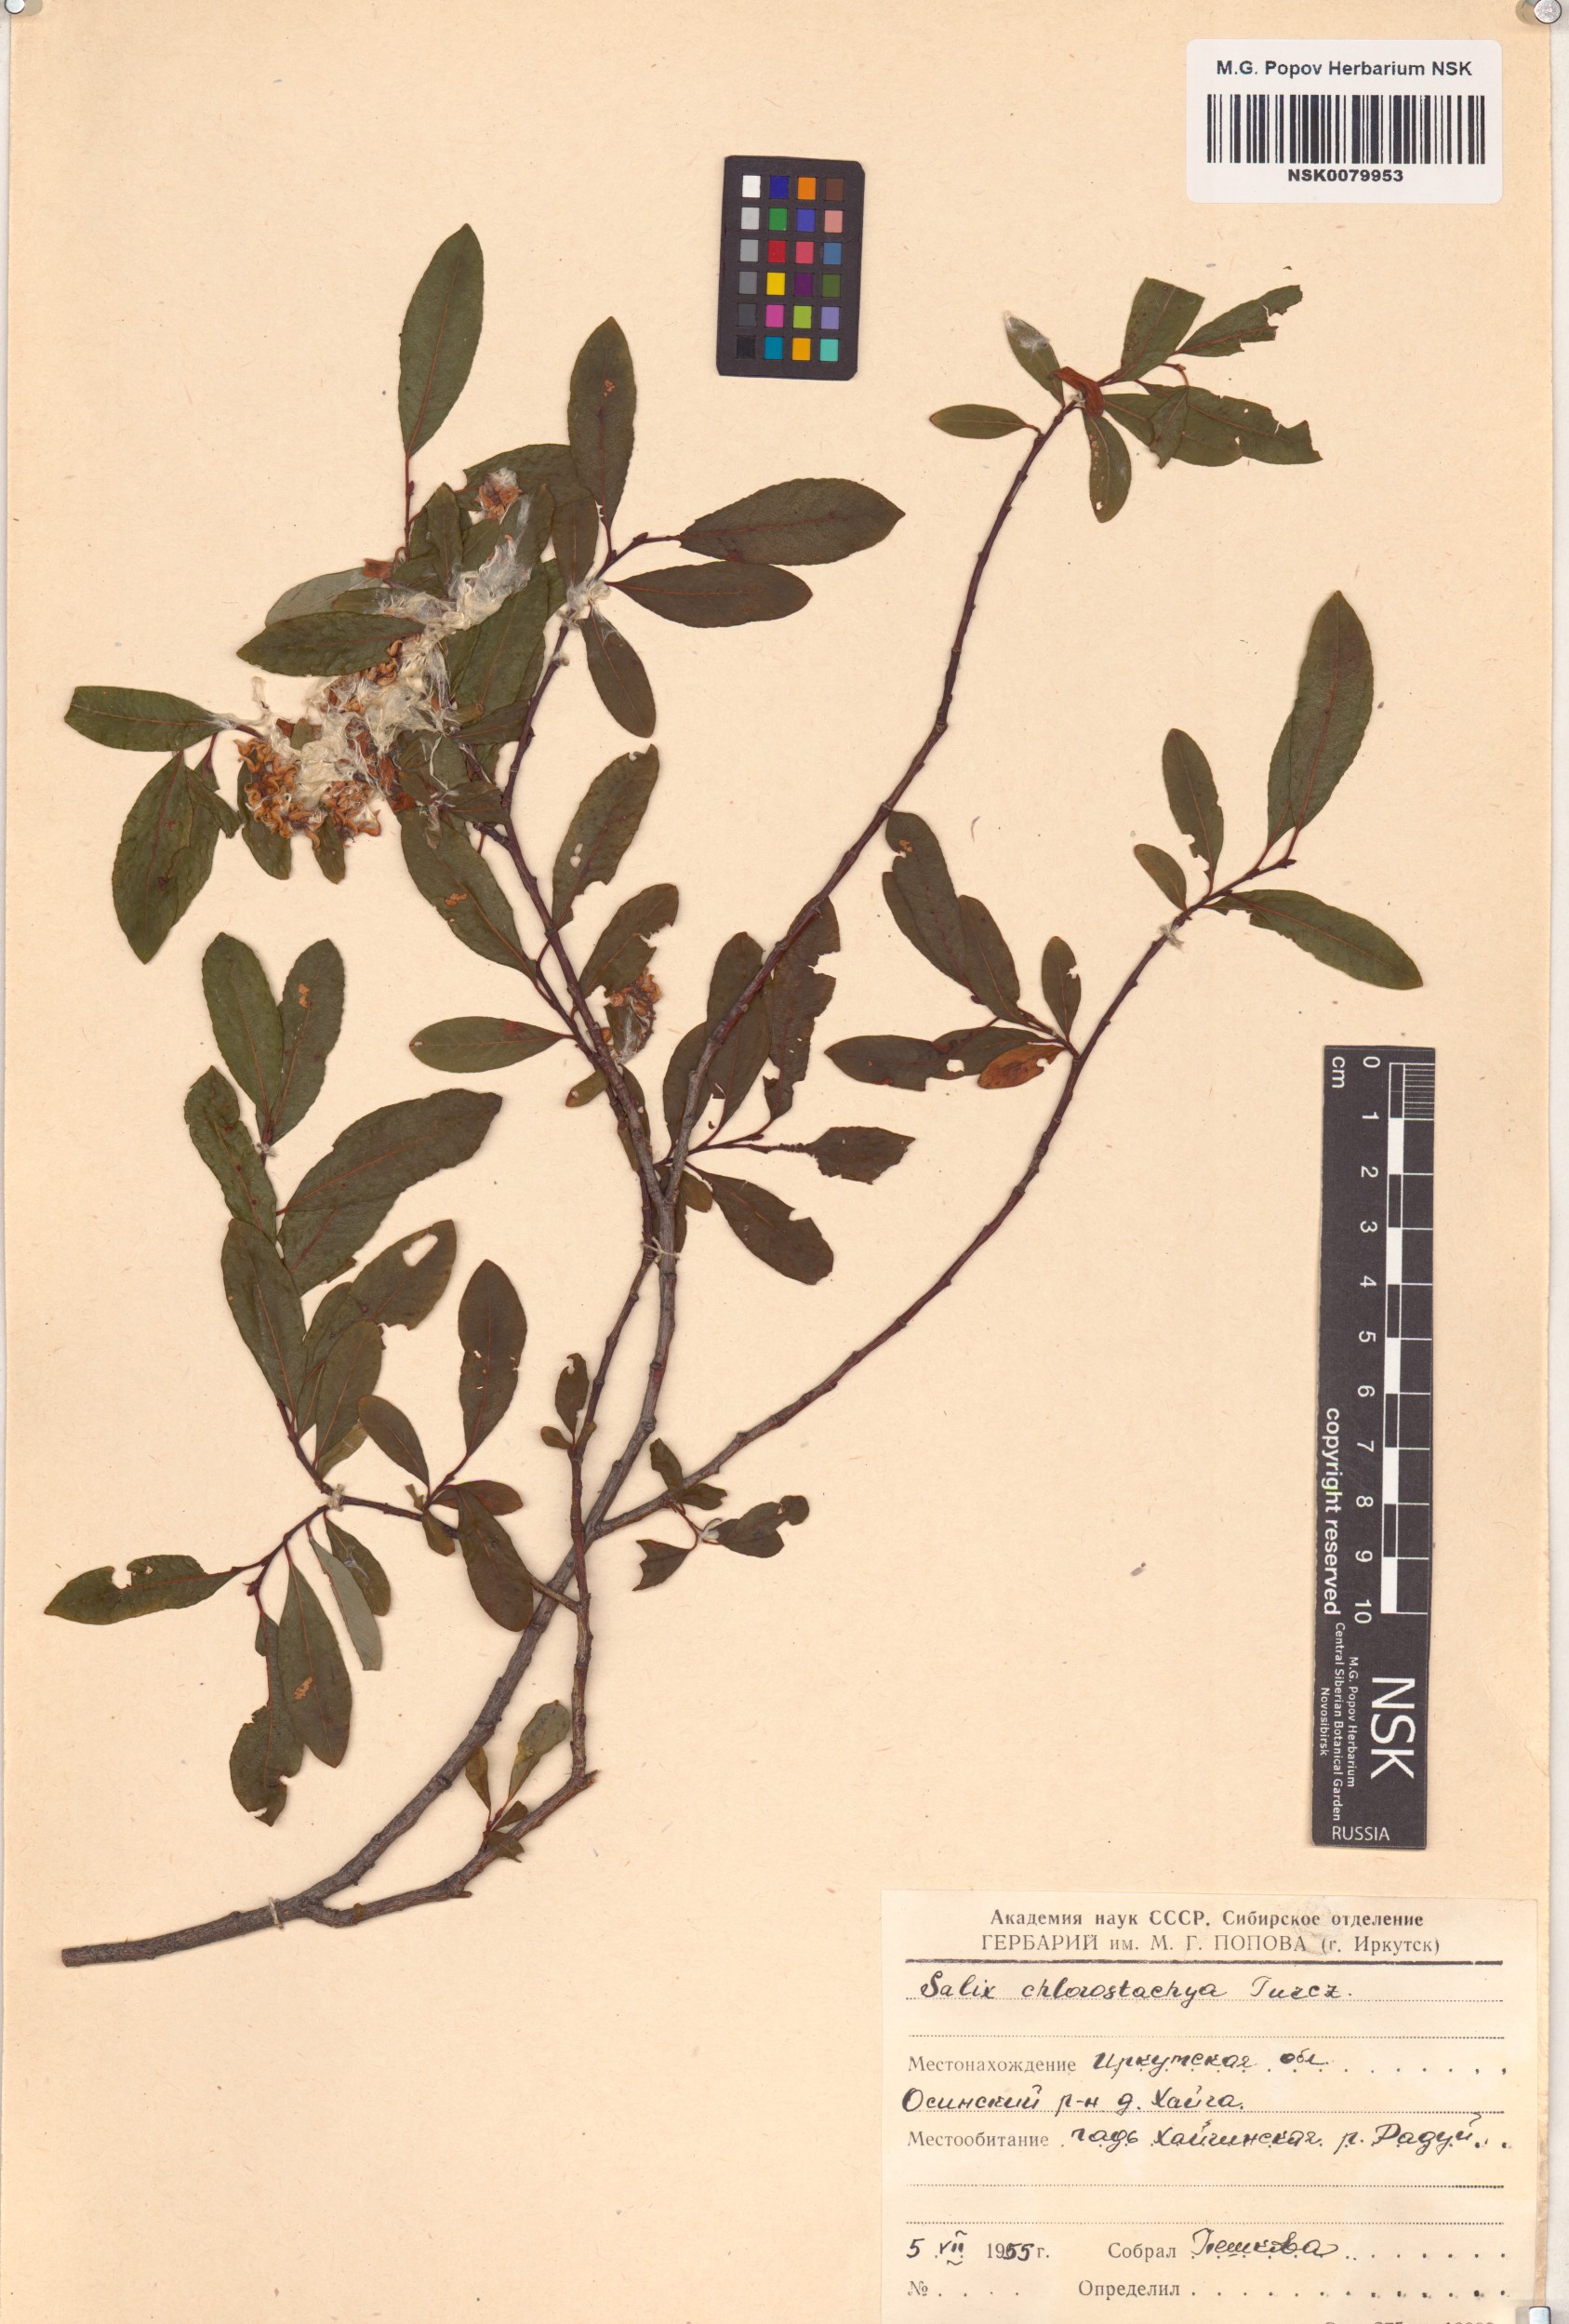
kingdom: Plantae
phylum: Tracheophyta
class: Magnoliopsida
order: Malpighiales
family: Salicaceae
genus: Salix
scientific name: Salix rhamnifolia
